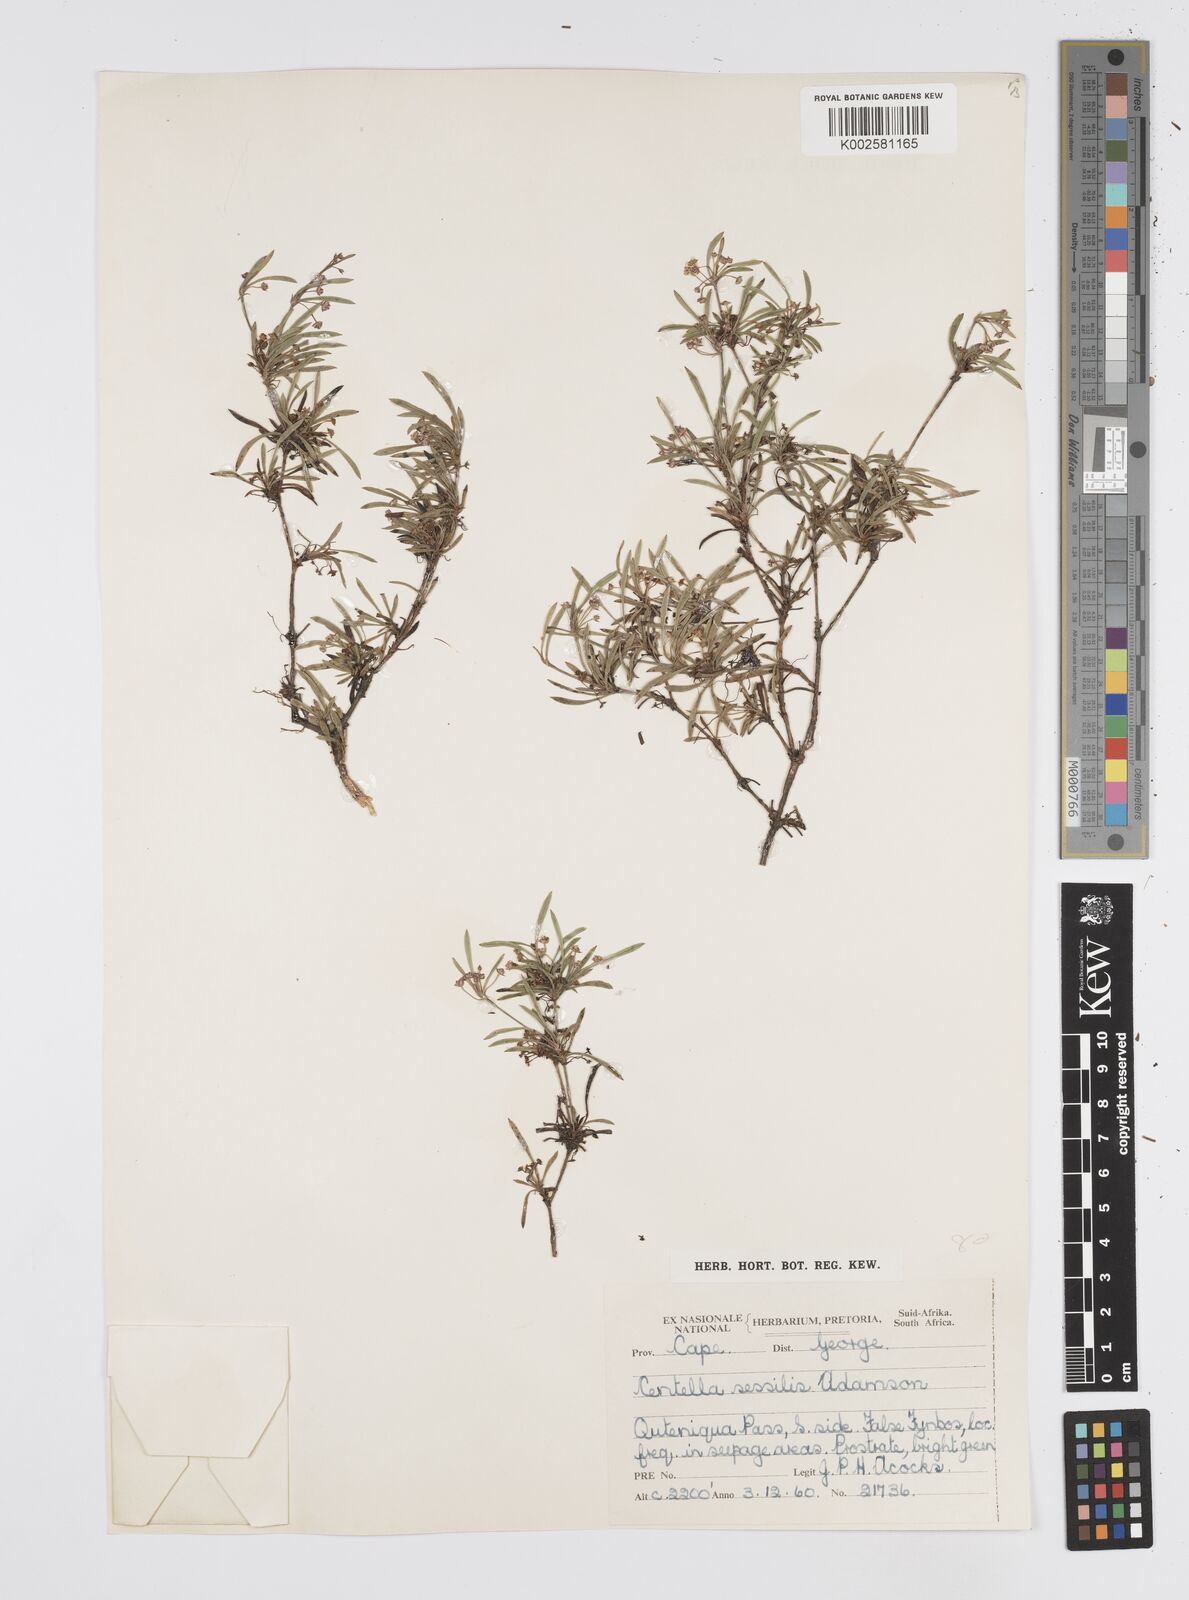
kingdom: Plantae
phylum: Tracheophyta
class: Magnoliopsida
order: Apiales
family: Apiaceae
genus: Centella
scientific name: Centella sessilis
